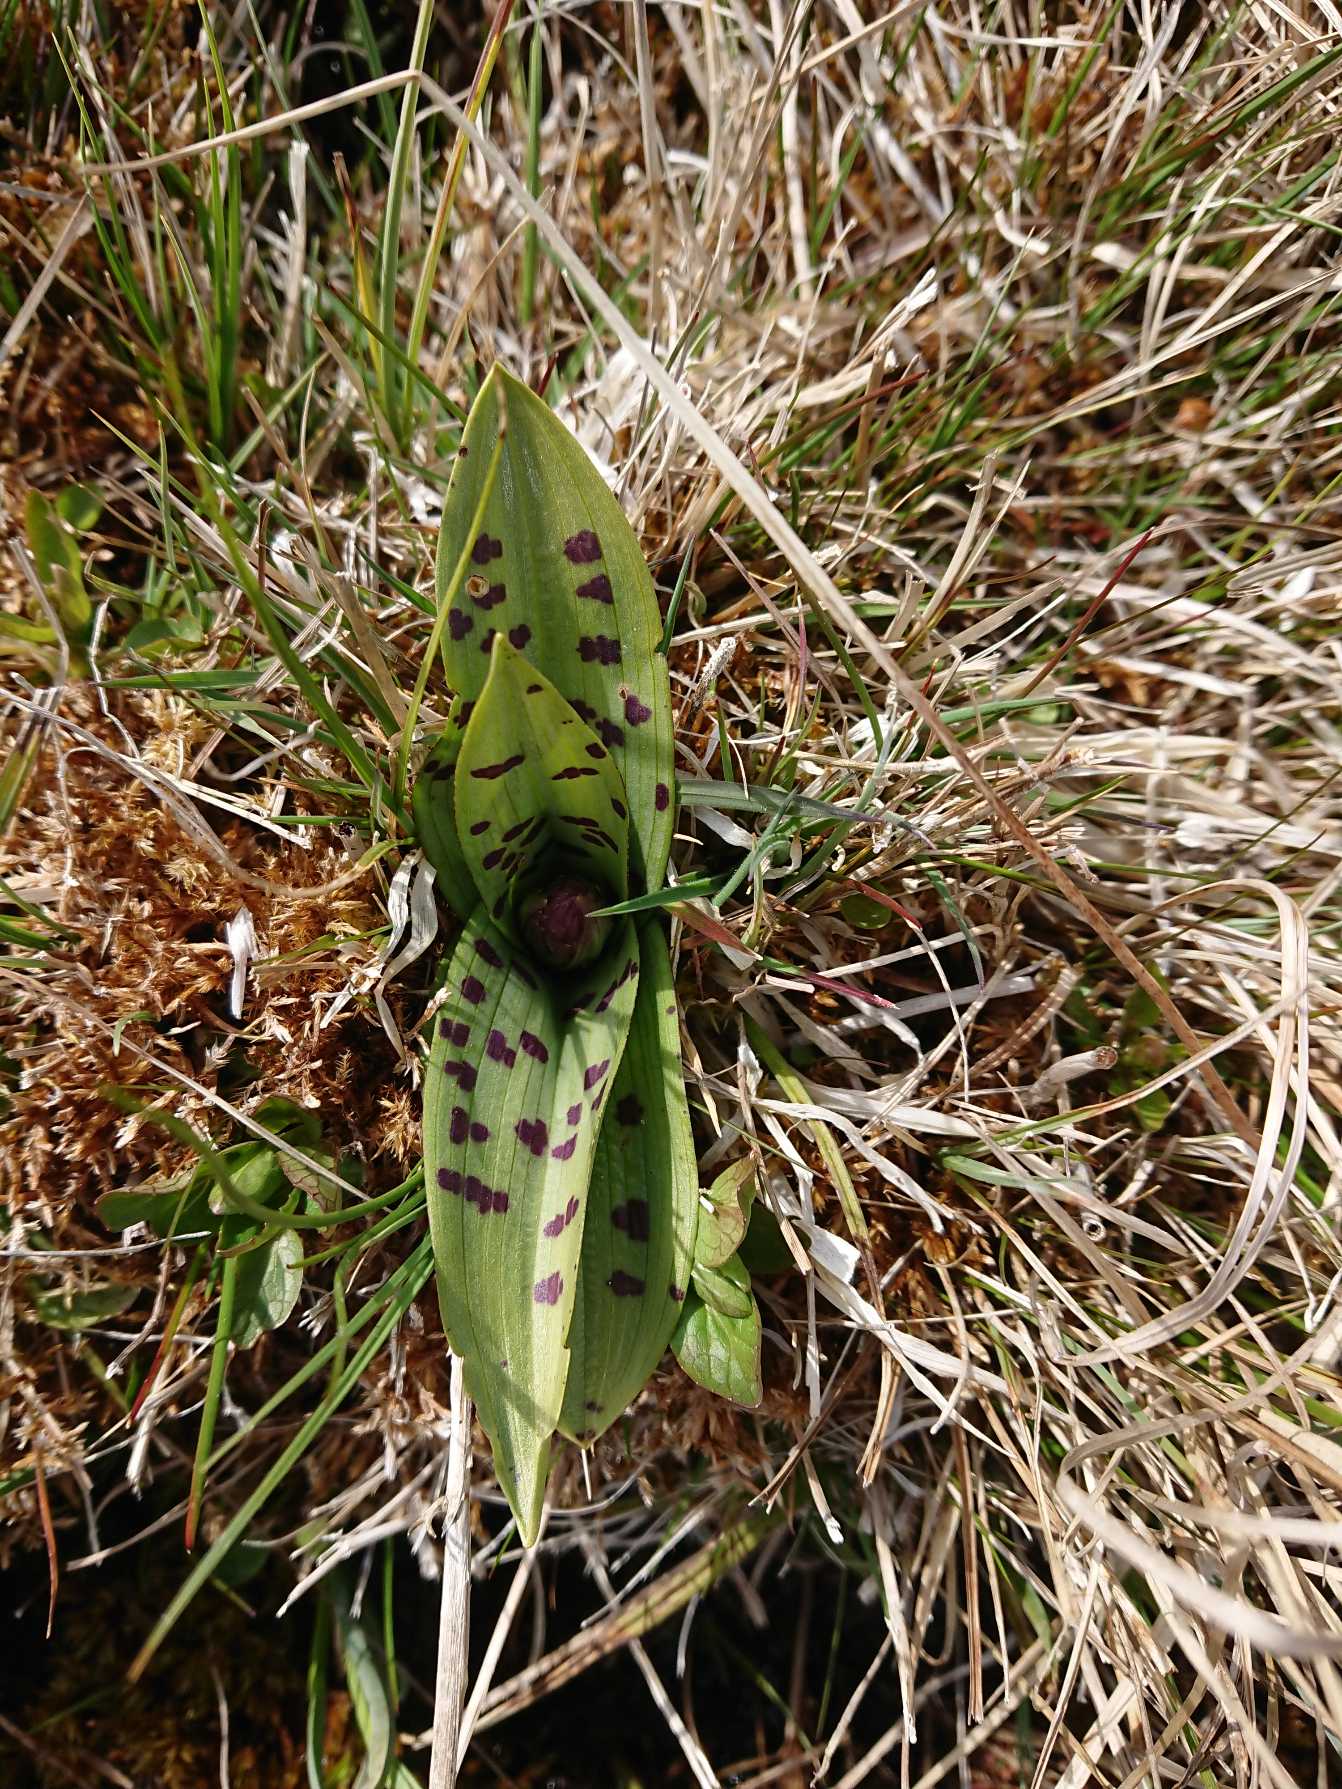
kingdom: Plantae
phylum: Tracheophyta
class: Liliopsida
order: Asparagales
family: Orchidaceae
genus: Dactylorhiza
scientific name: Dactylorhiza majalis
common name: Maj-gøgeurt
